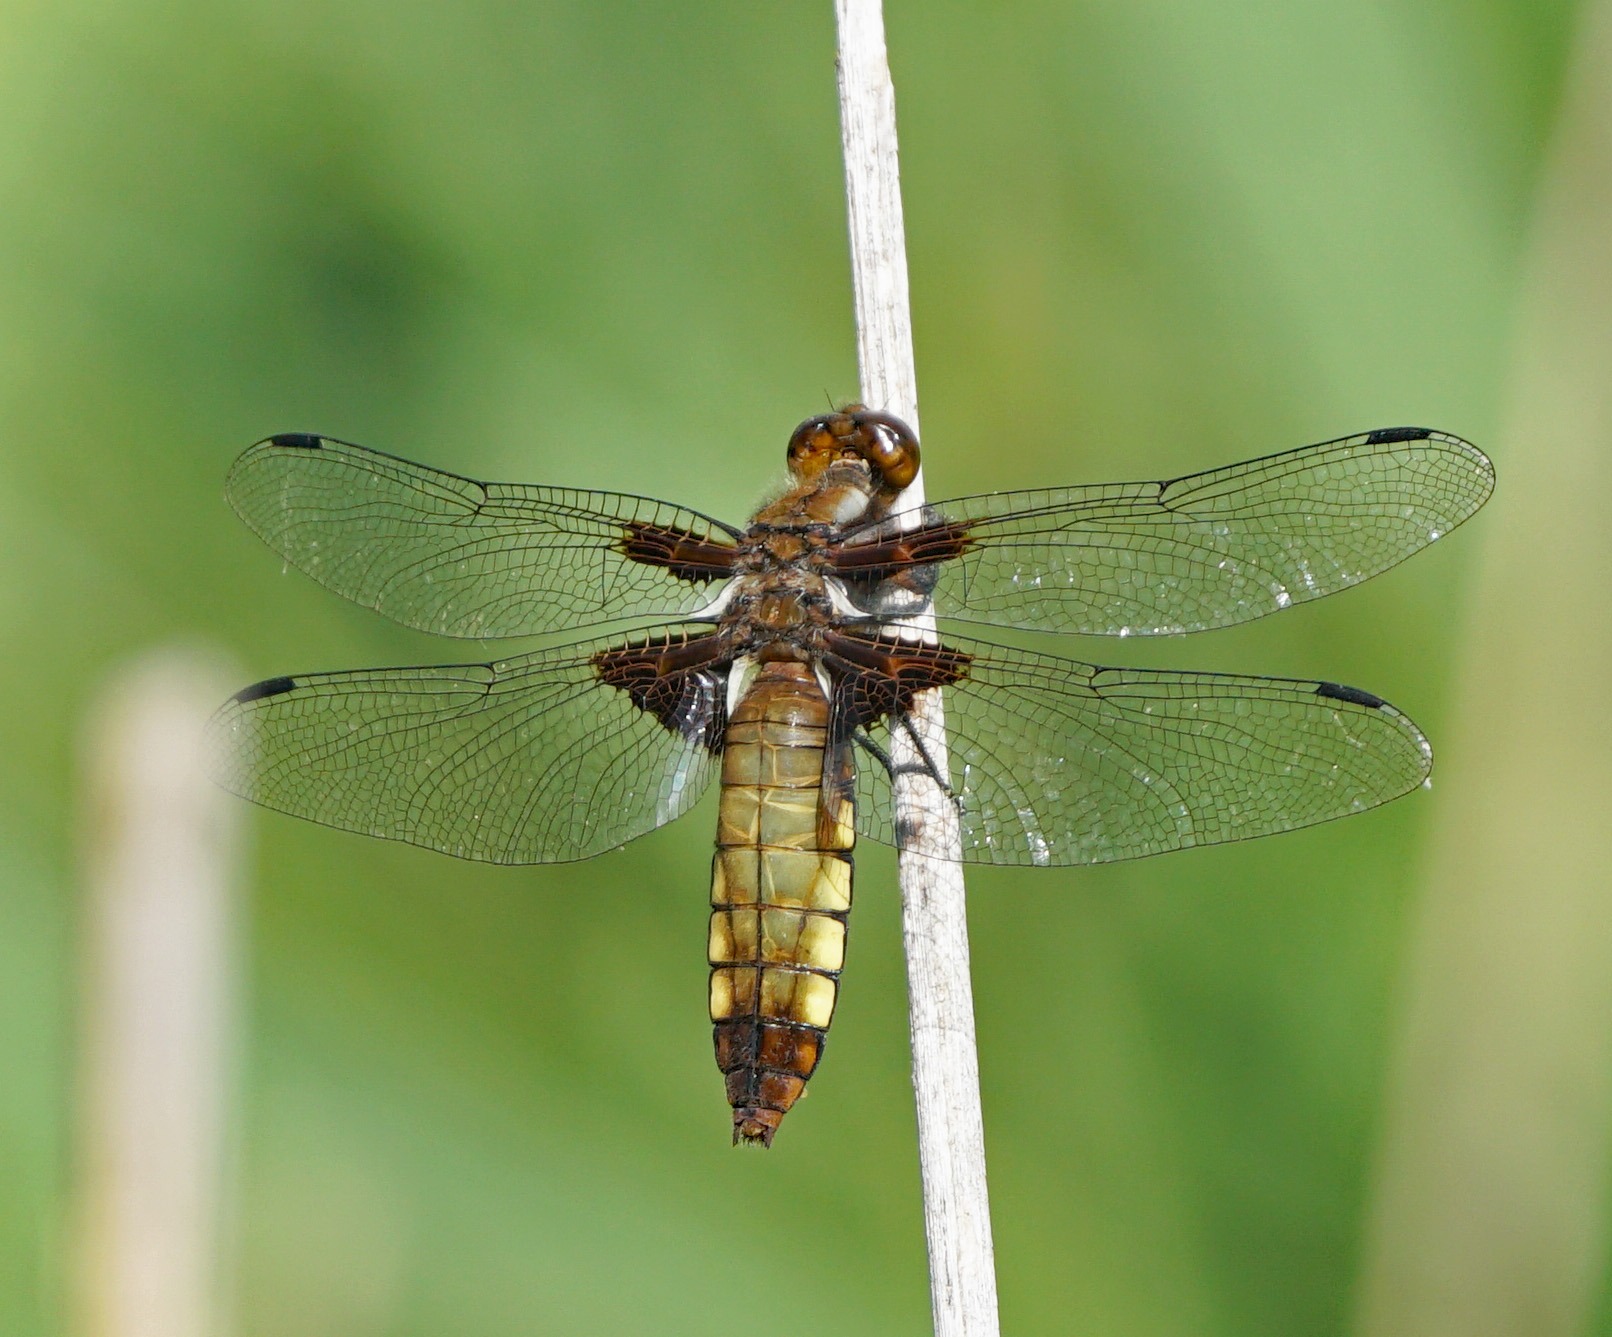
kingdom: Animalia
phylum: Arthropoda
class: Insecta
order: Odonata
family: Libellulidae
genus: Libellula
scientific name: Libellula depressa
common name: Blå libel
